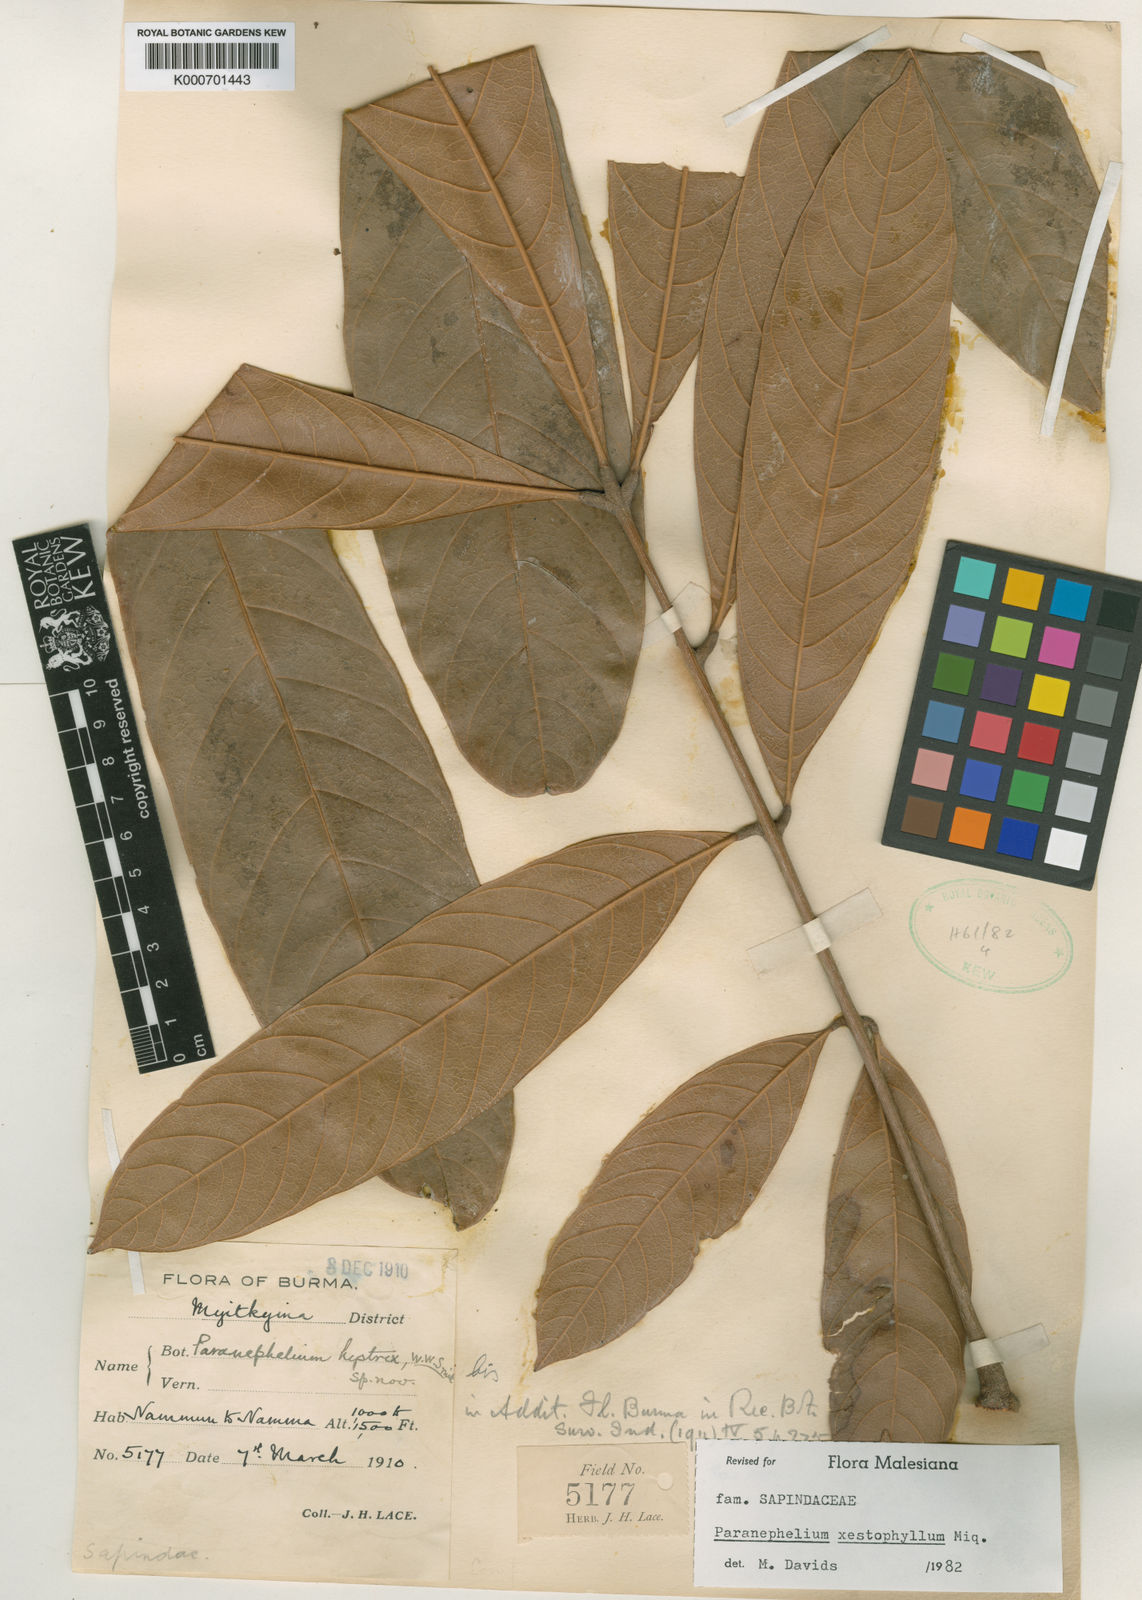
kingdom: Plantae
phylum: Tracheophyta
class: Magnoliopsida
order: Sapindales
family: Sapindaceae
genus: Paranephelium
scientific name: Paranephelium xestophyllum
